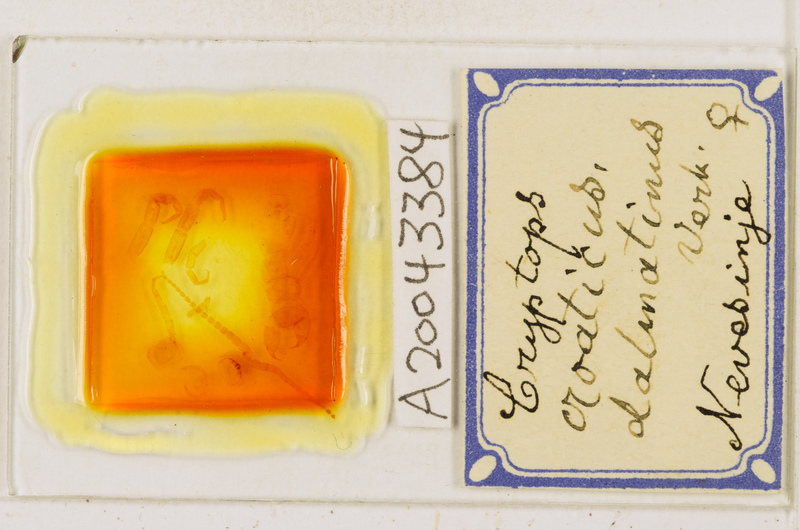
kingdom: Animalia
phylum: Arthropoda
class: Chilopoda
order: Scolopendromorpha
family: Cryptopidae
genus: Cryptops
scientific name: Cryptops croaticus
